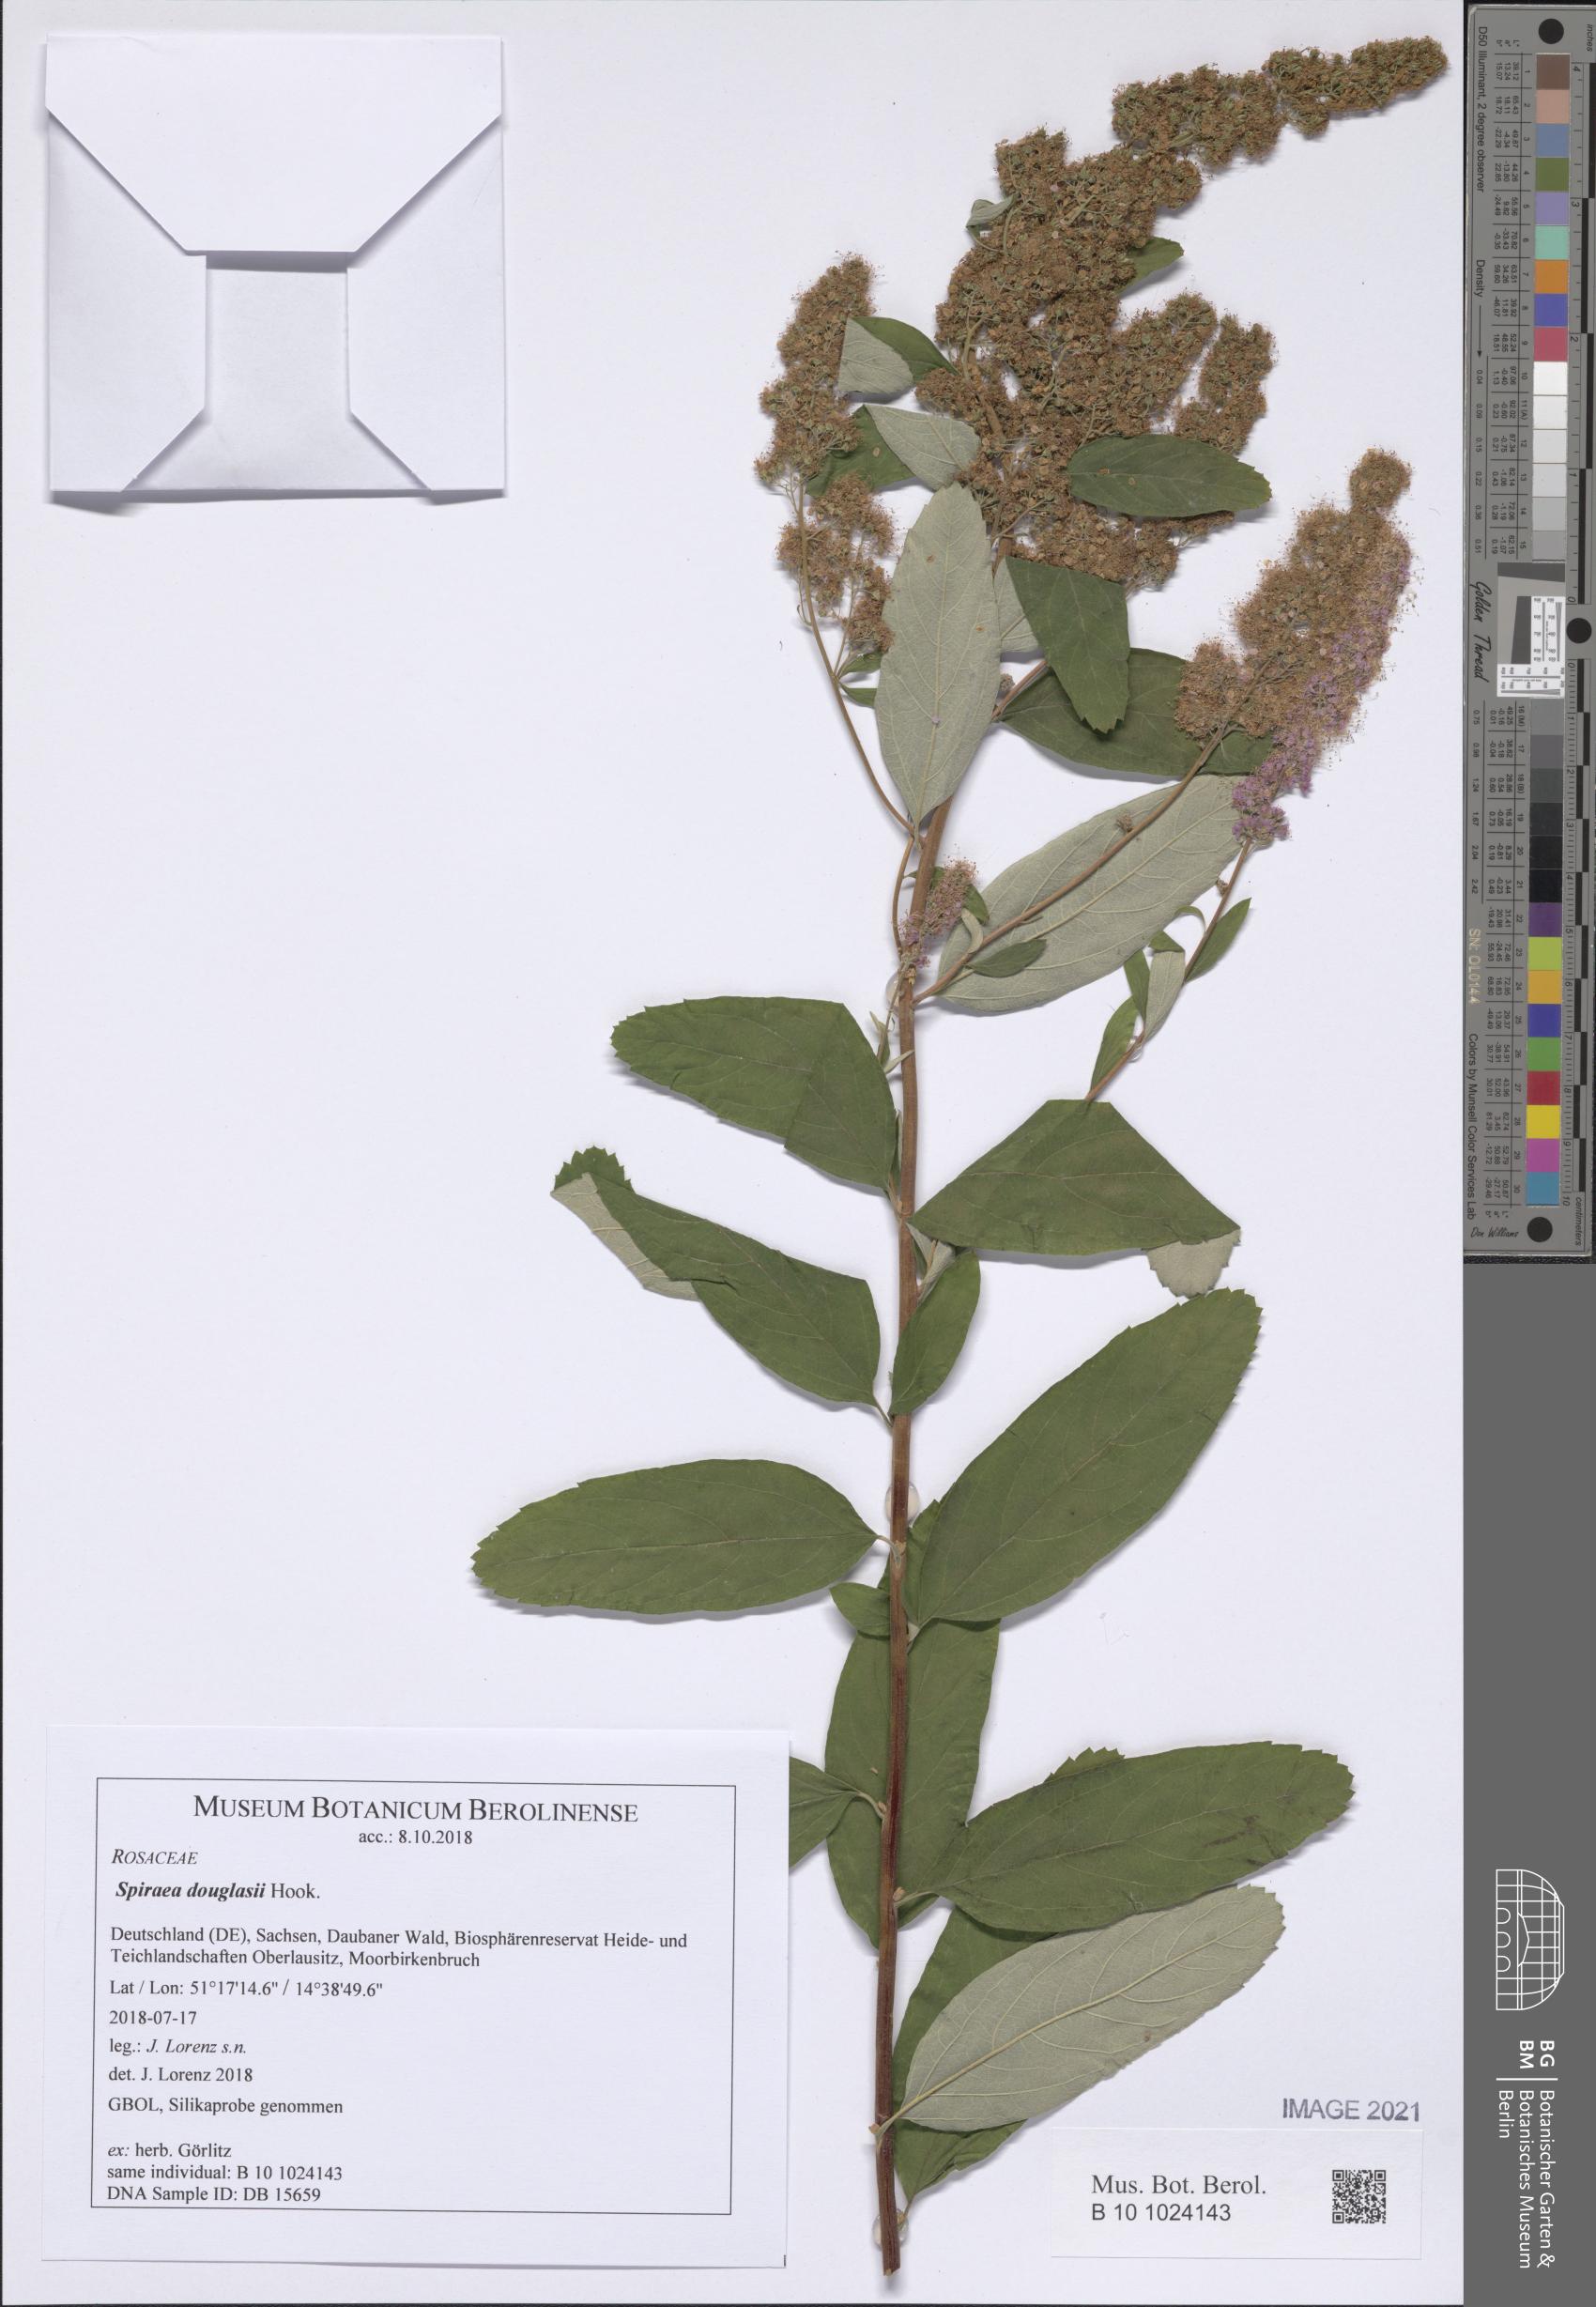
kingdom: Plantae
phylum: Tracheophyta
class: Magnoliopsida
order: Rosales
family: Rosaceae
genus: Spiraea
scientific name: Spiraea douglasii
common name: Steeplebush
